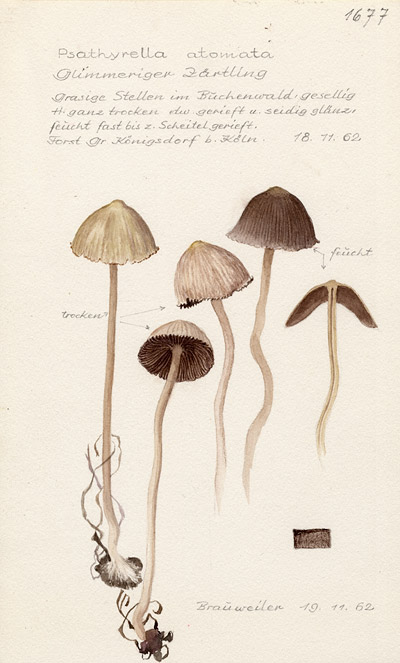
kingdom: Fungi
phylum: Basidiomycota
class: Agaricomycetes
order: Agaricales
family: Psathyrellaceae
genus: Psathyrella
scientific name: Psathyrella atomata
